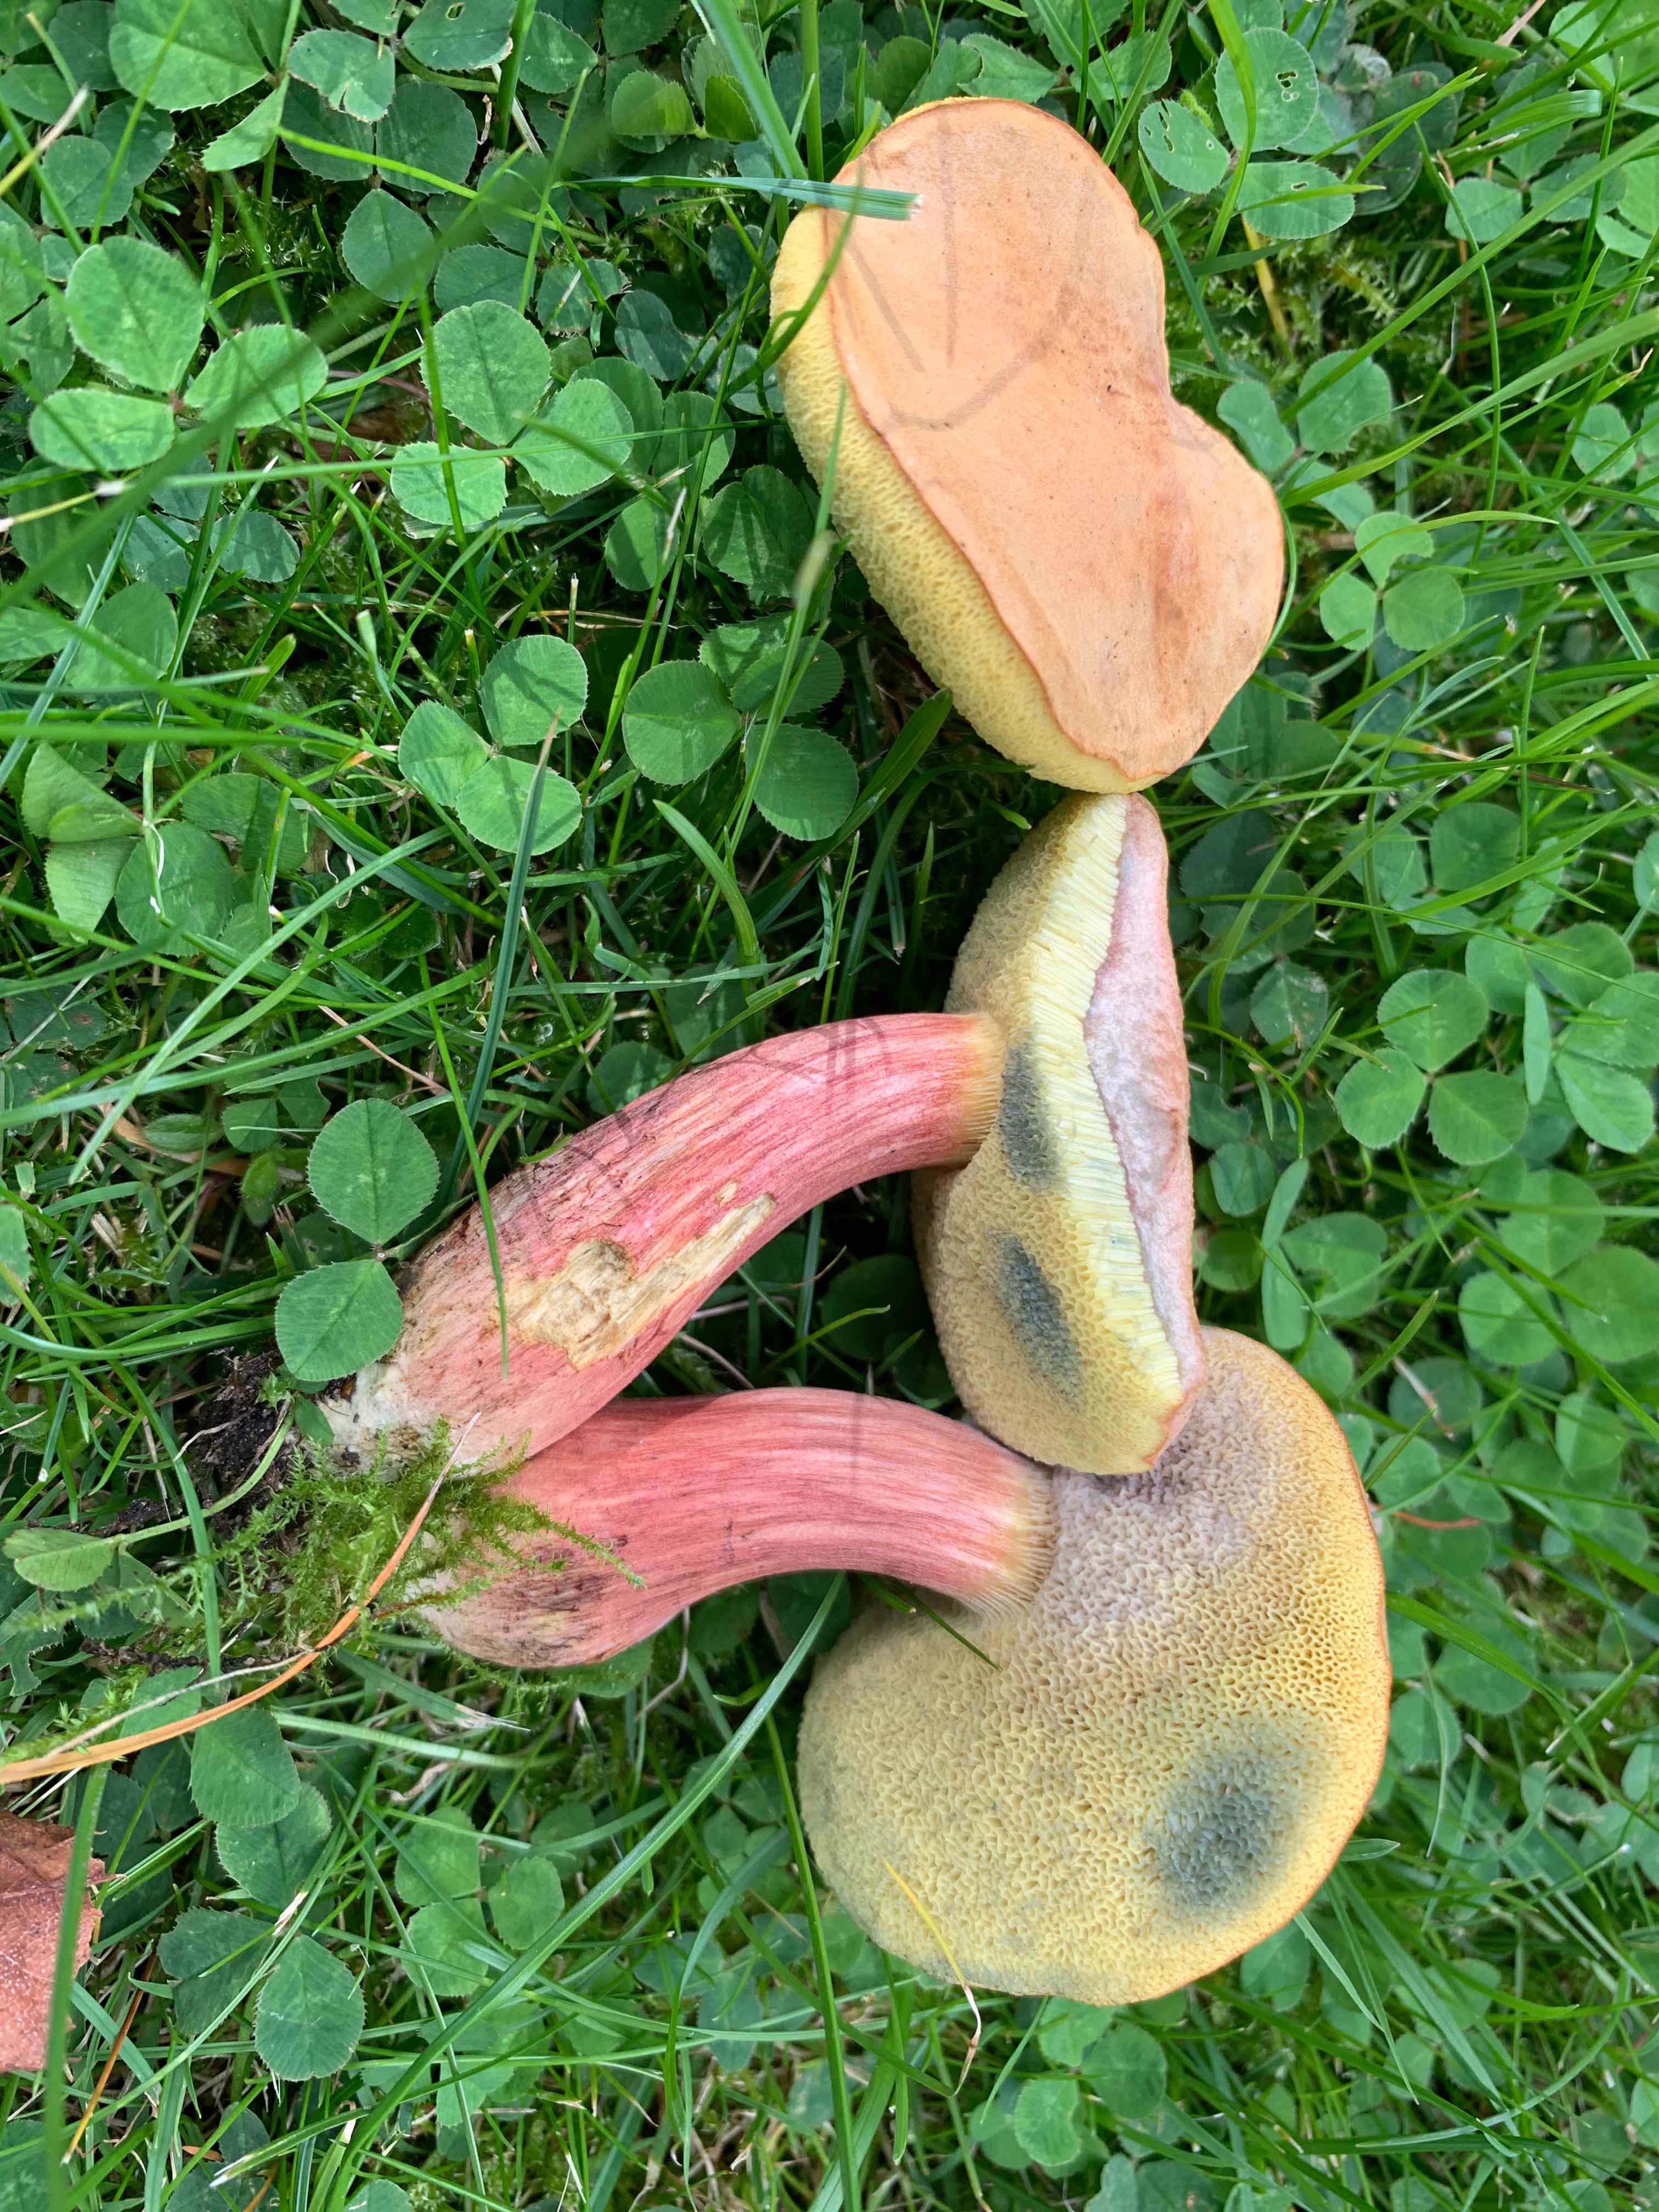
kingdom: Fungi
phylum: Basidiomycota
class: Agaricomycetes
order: Boletales
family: Boletaceae
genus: Hortiboletus
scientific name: Hortiboletus bubalinus
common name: aurora-rørhat
